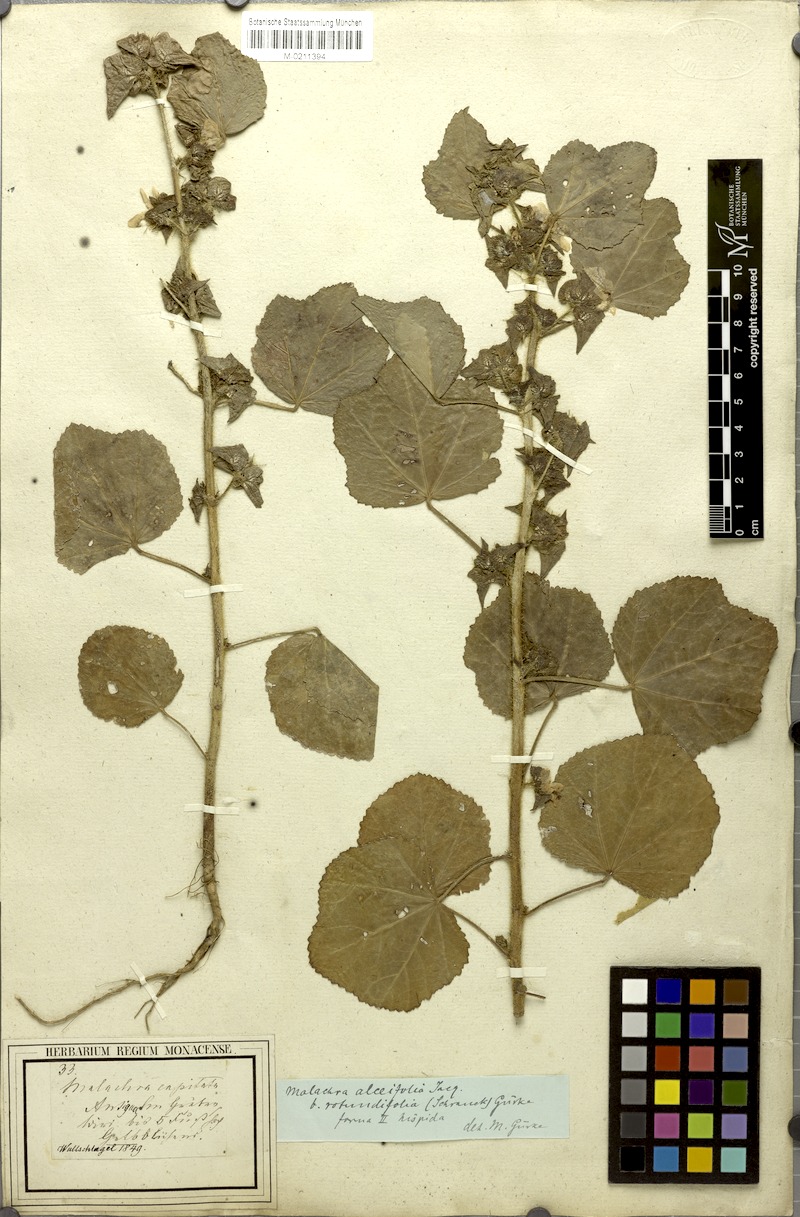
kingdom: Plantae
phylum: Tracheophyta
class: Magnoliopsida
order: Malvales
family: Malvaceae
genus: Malachra
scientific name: Malachra alceifolia
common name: Yellow leafbract
